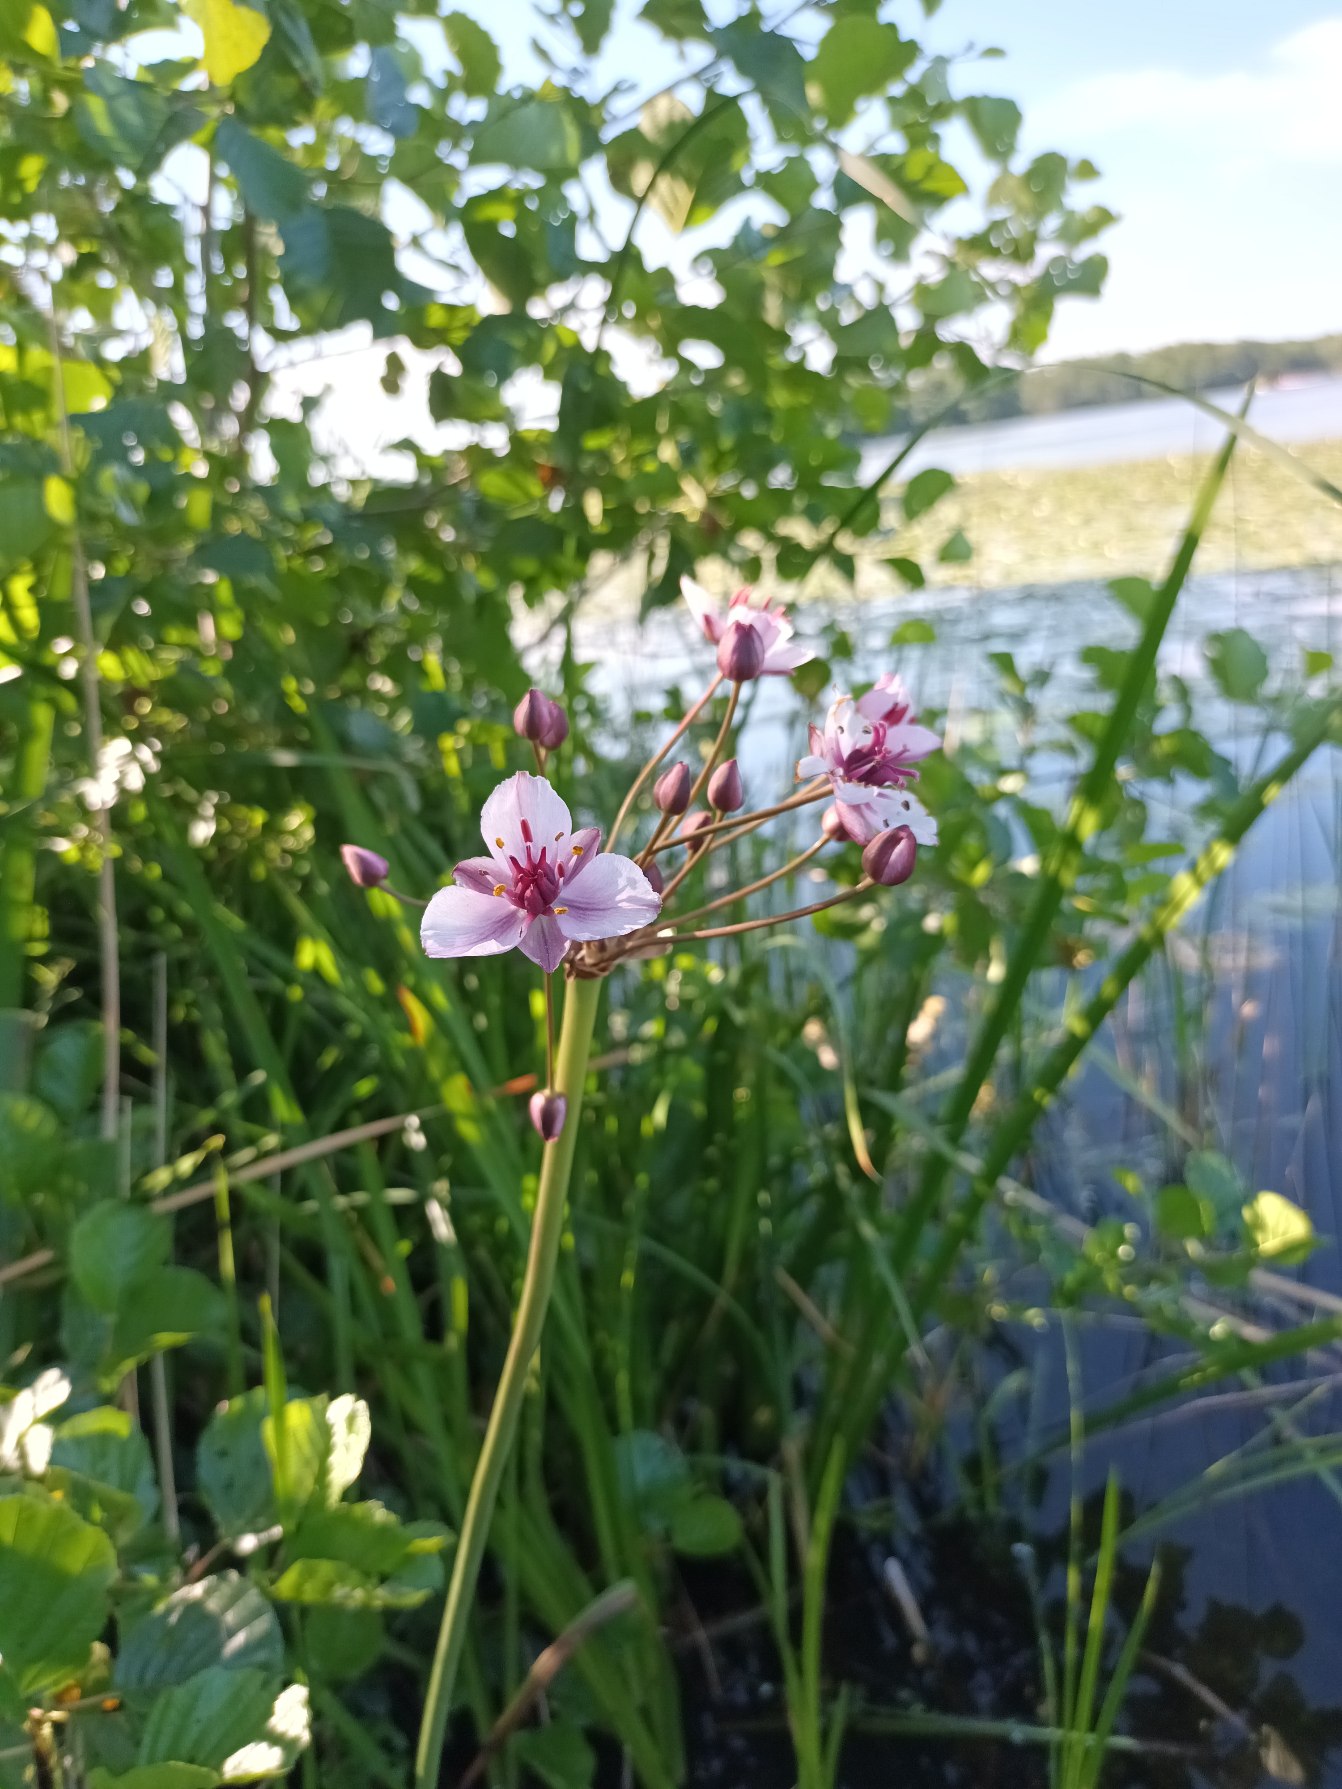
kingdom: Plantae
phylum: Tracheophyta
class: Liliopsida
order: Alismatales
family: Butomaceae
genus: Butomus
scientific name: Butomus umbellatus
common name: Brudelys
